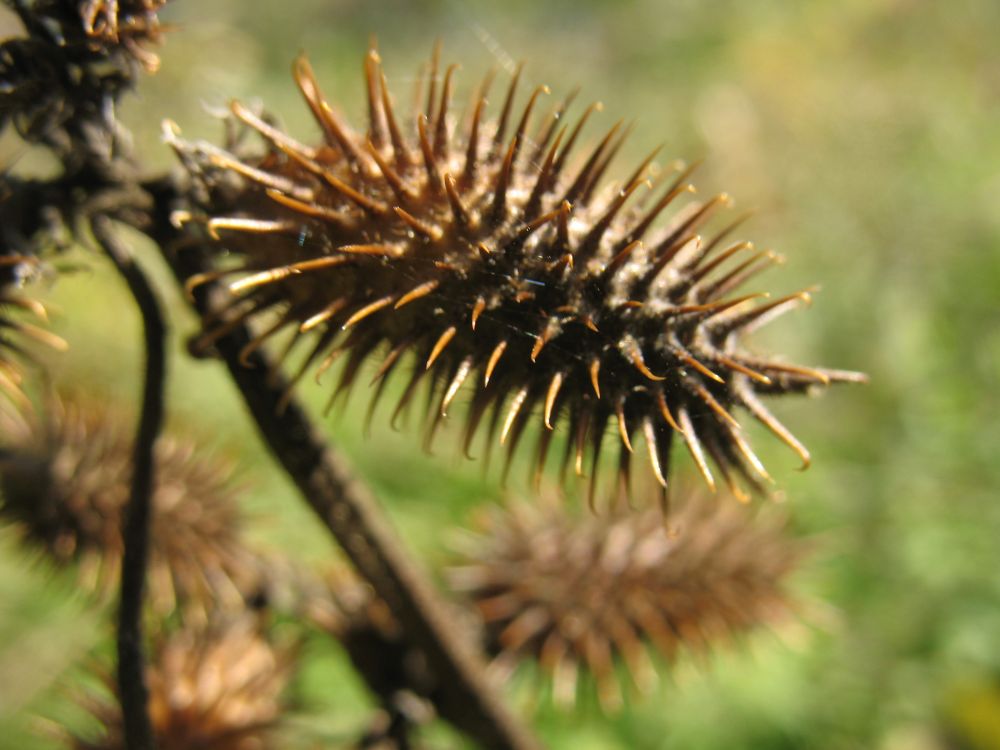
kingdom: Plantae
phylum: Tracheophyta
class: Magnoliopsida
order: Asterales
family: Asteraceae
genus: Xanthium
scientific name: Xanthium strumarium
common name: Rough cocklebur
